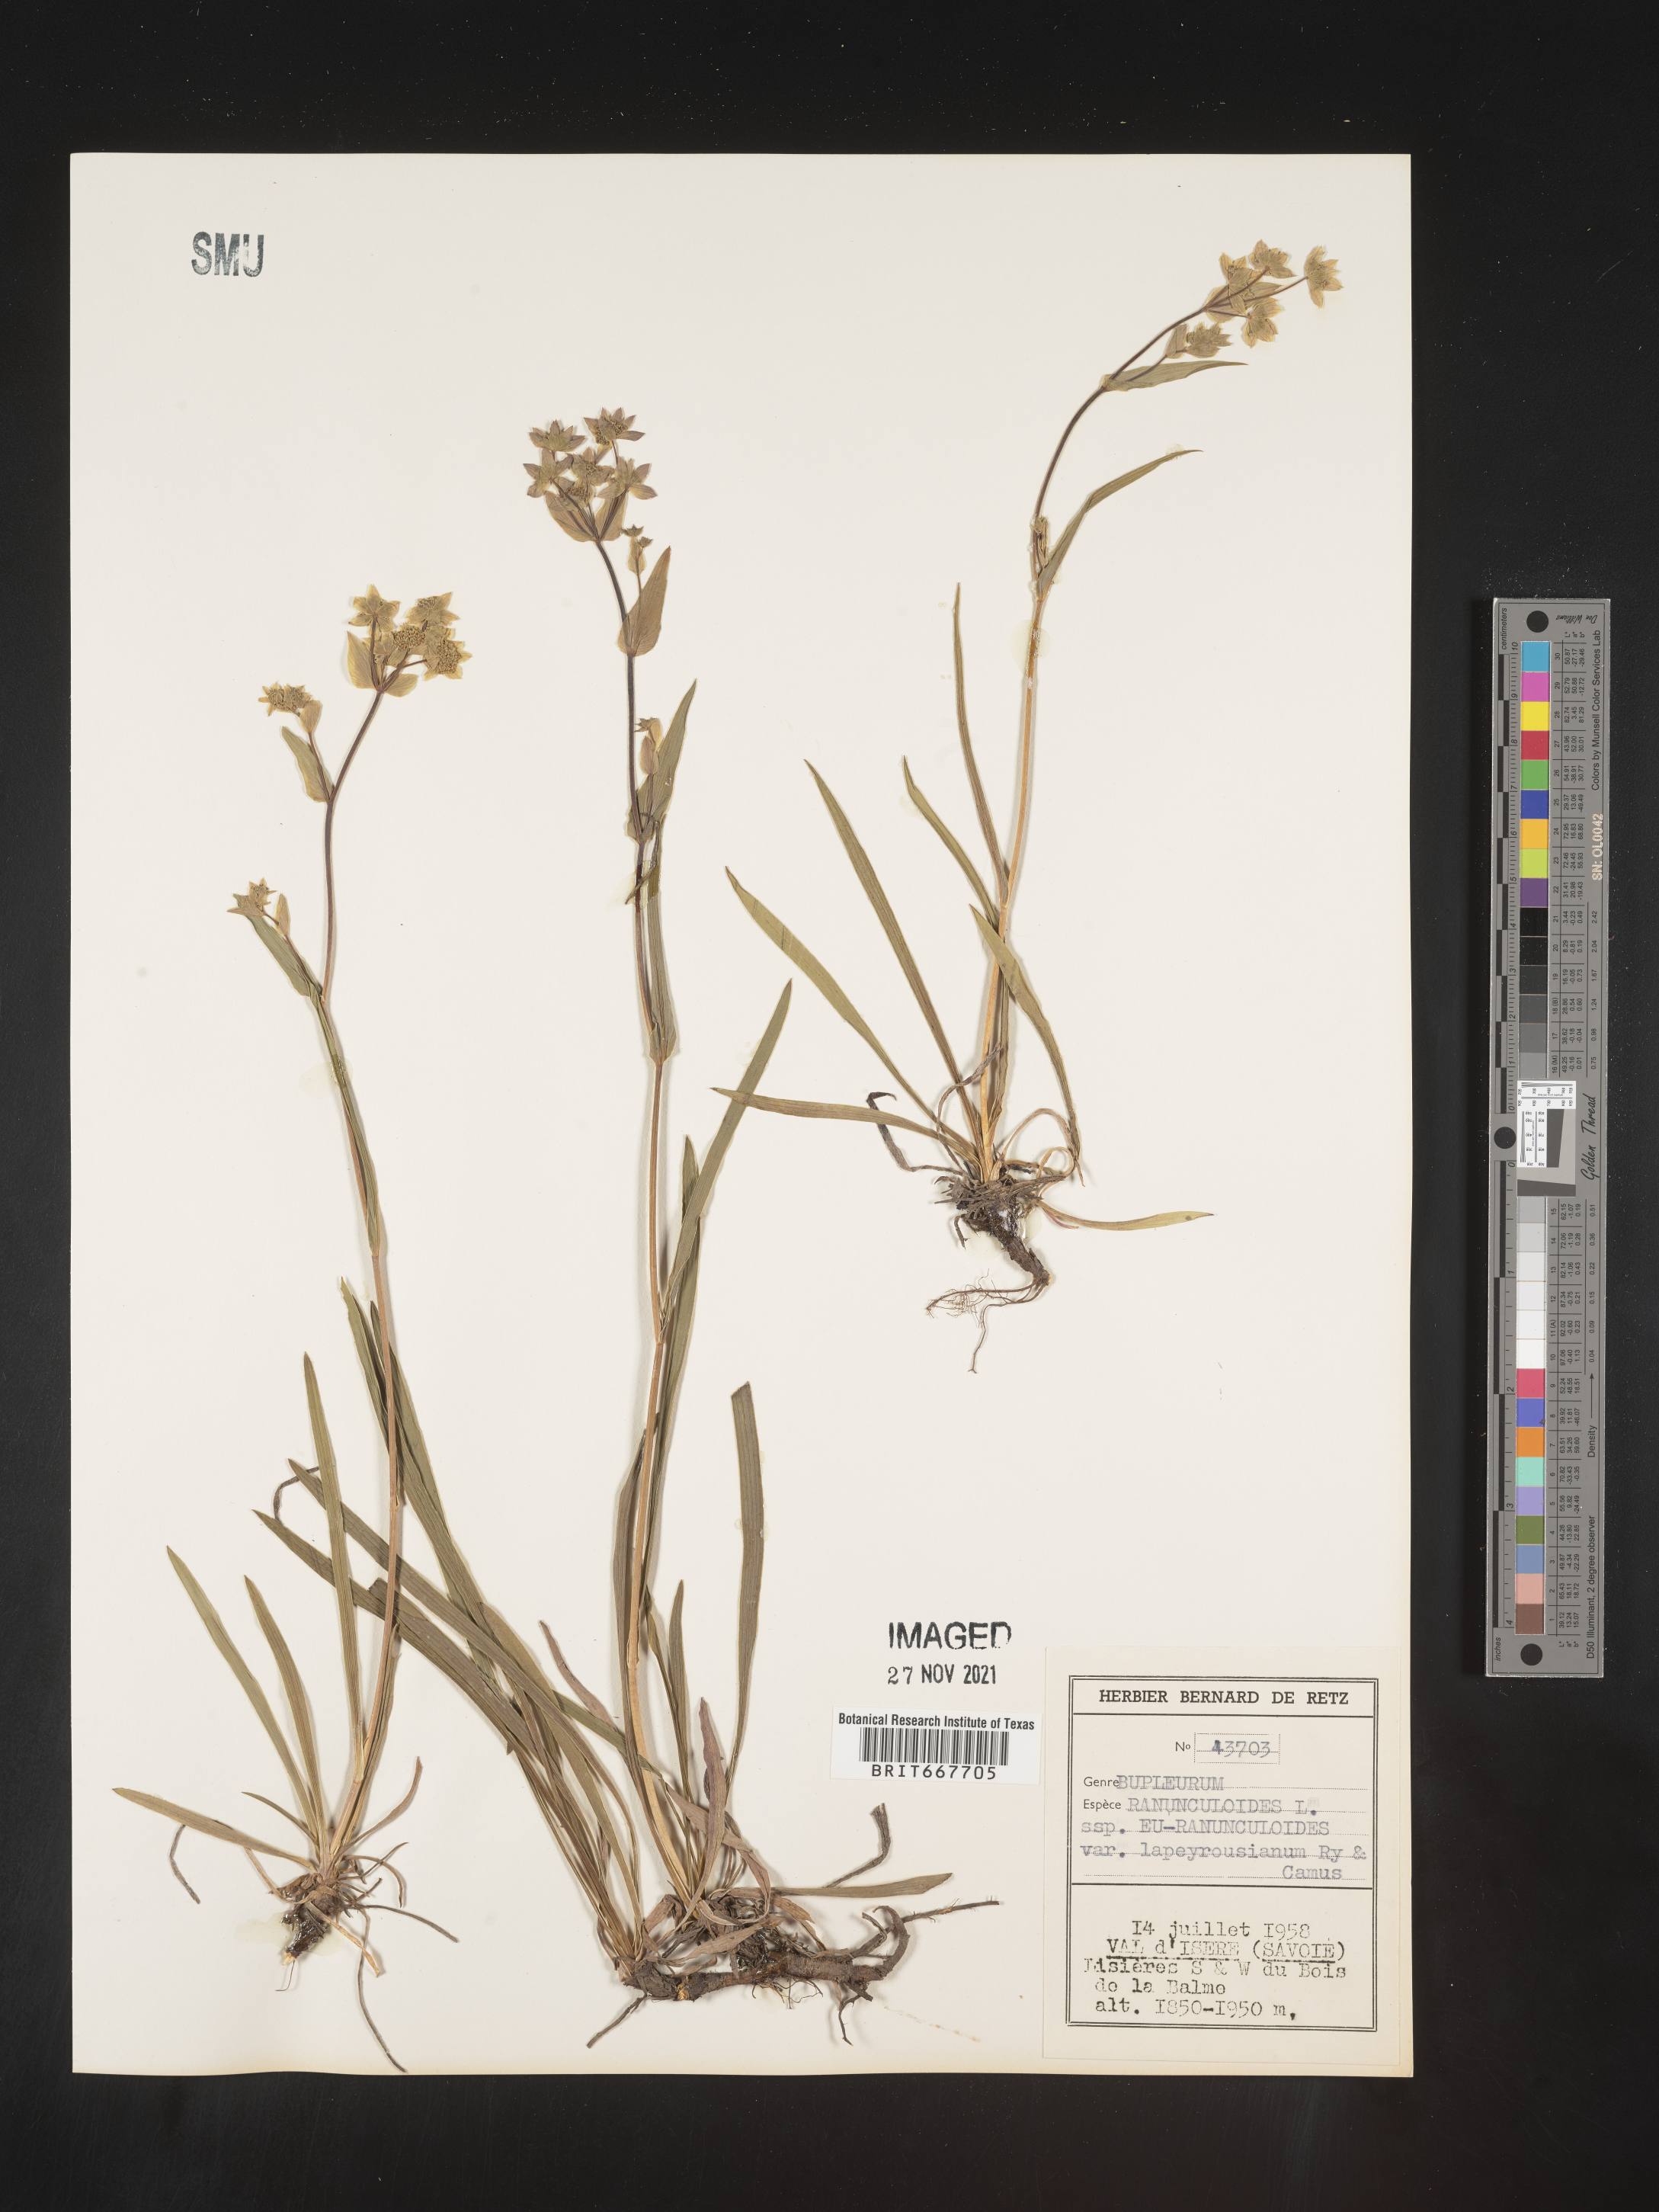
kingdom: Plantae
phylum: Tracheophyta
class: Magnoliopsida
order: Apiales
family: Apiaceae
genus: Bupleurum
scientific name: Bupleurum
